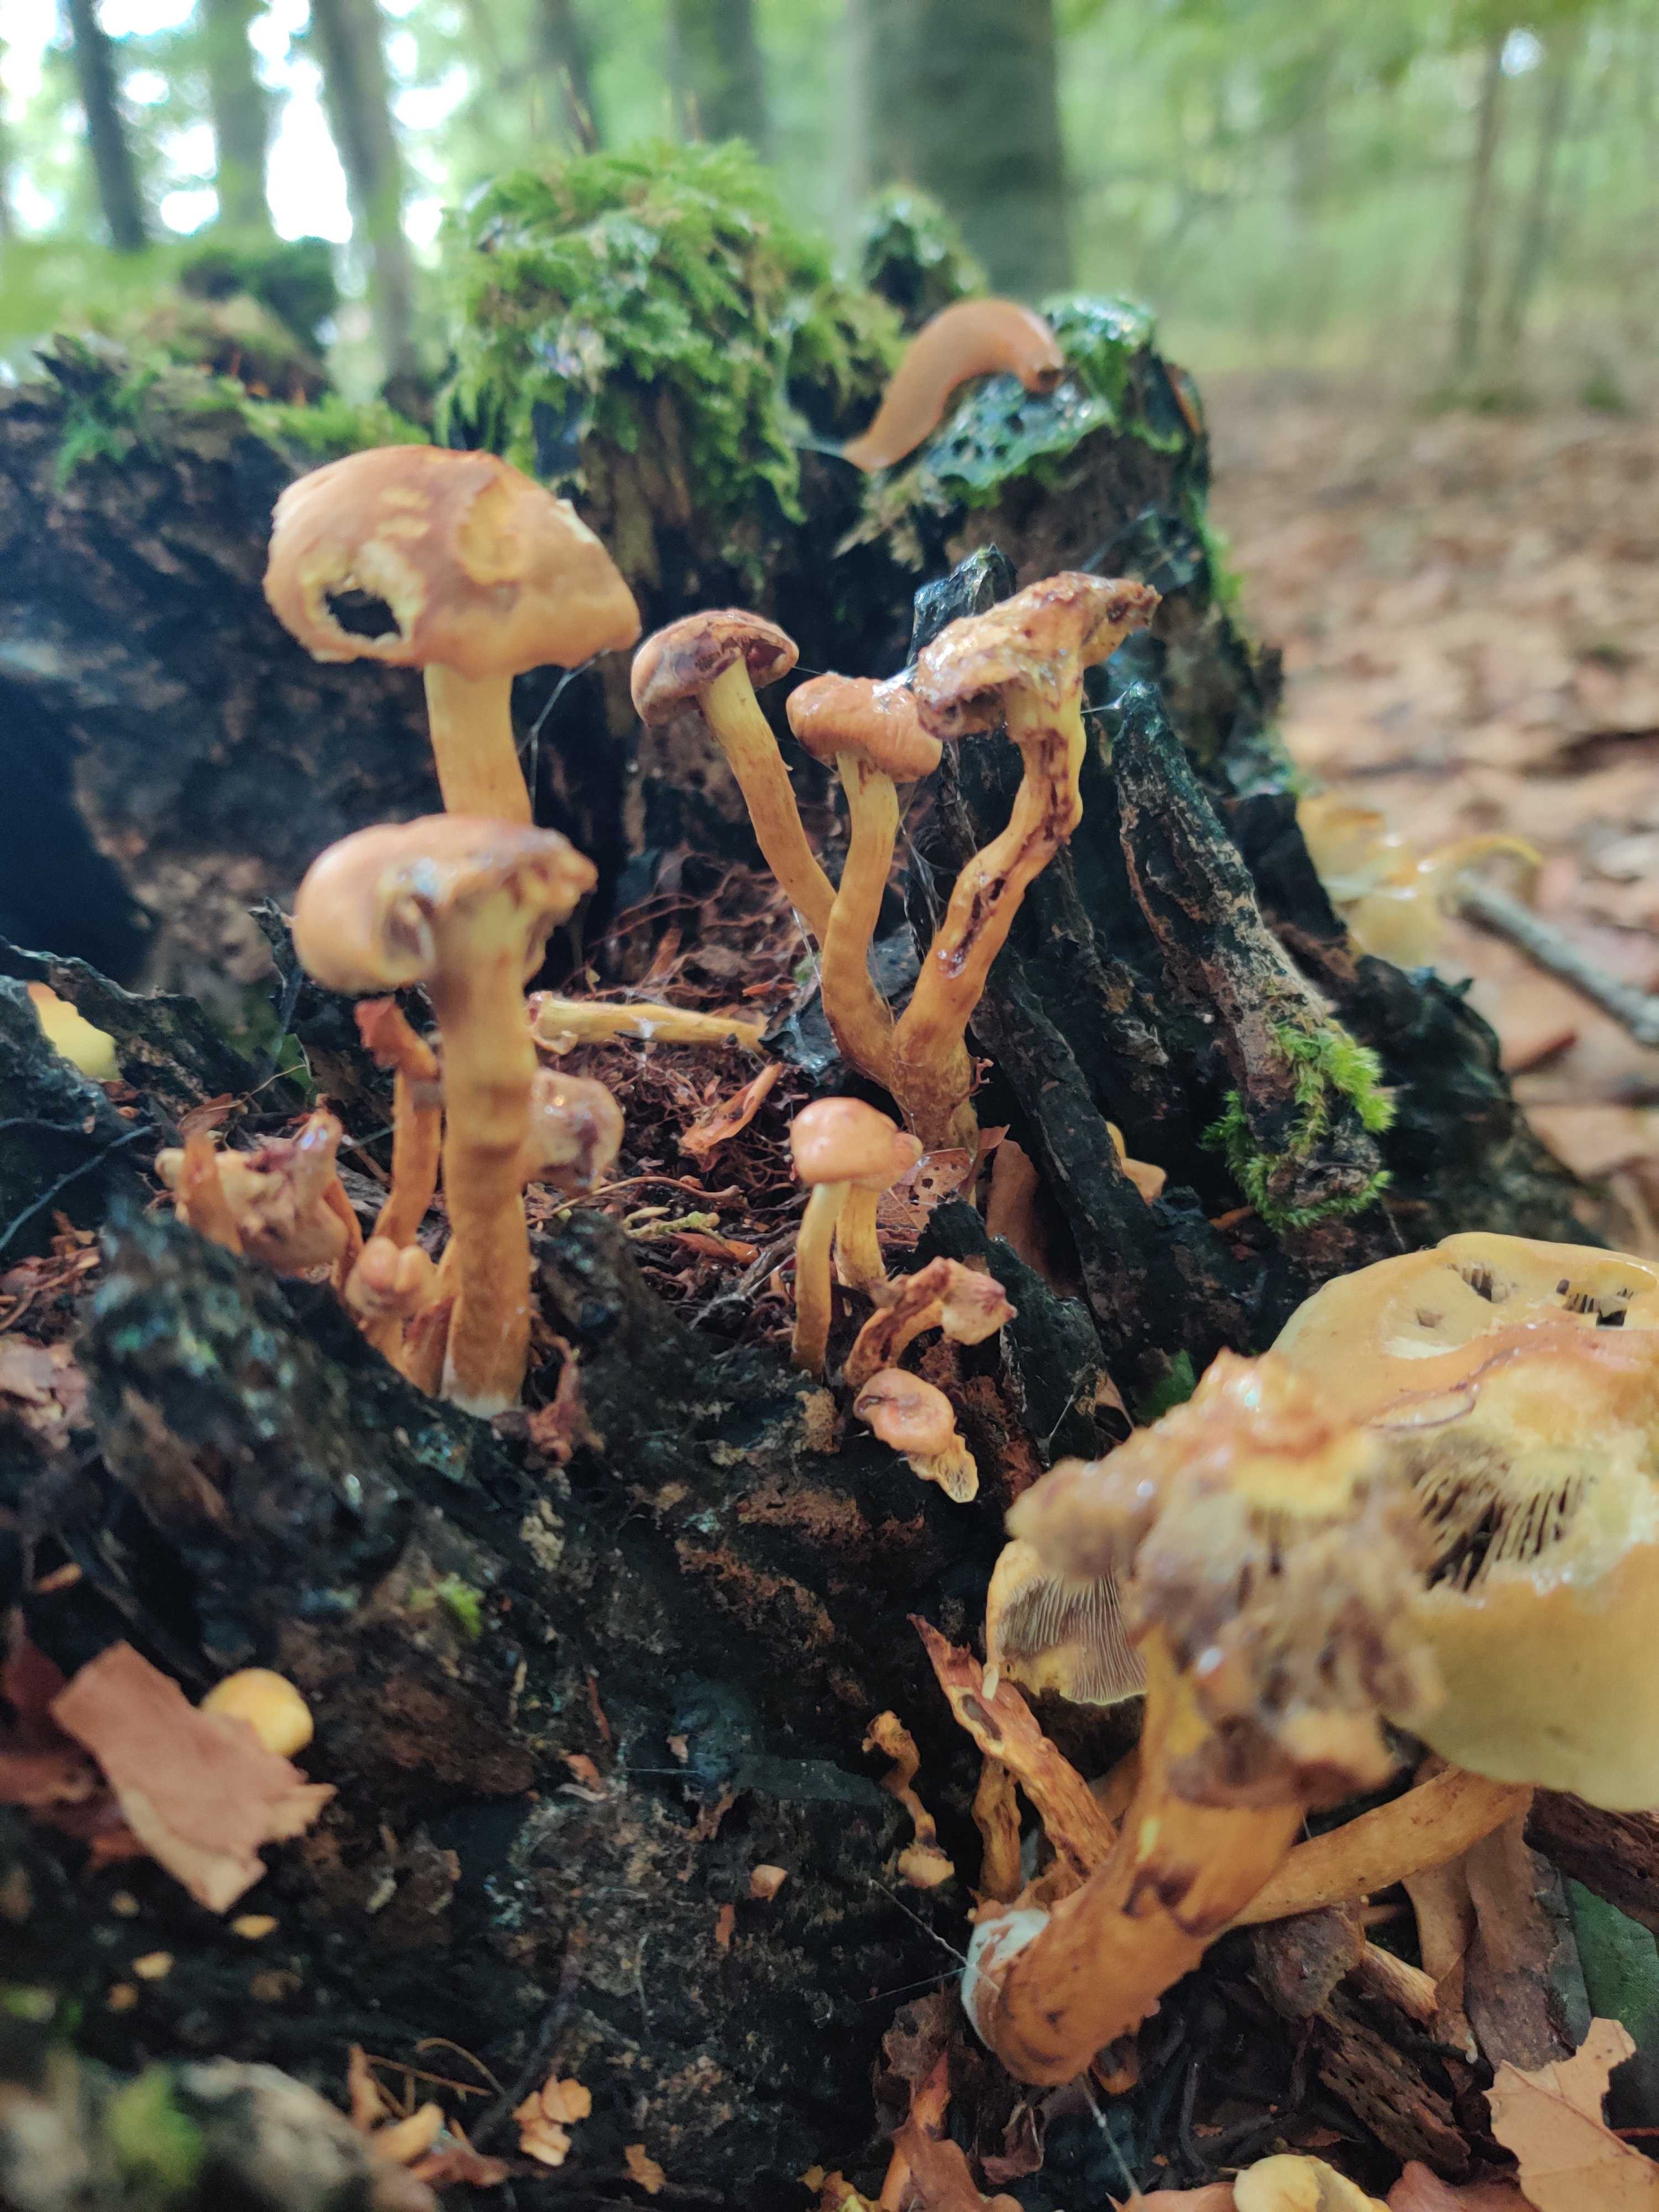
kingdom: Fungi
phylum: Basidiomycota
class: Agaricomycetes
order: Agaricales
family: Strophariaceae
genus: Hypholoma
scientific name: Hypholoma fasciculare
